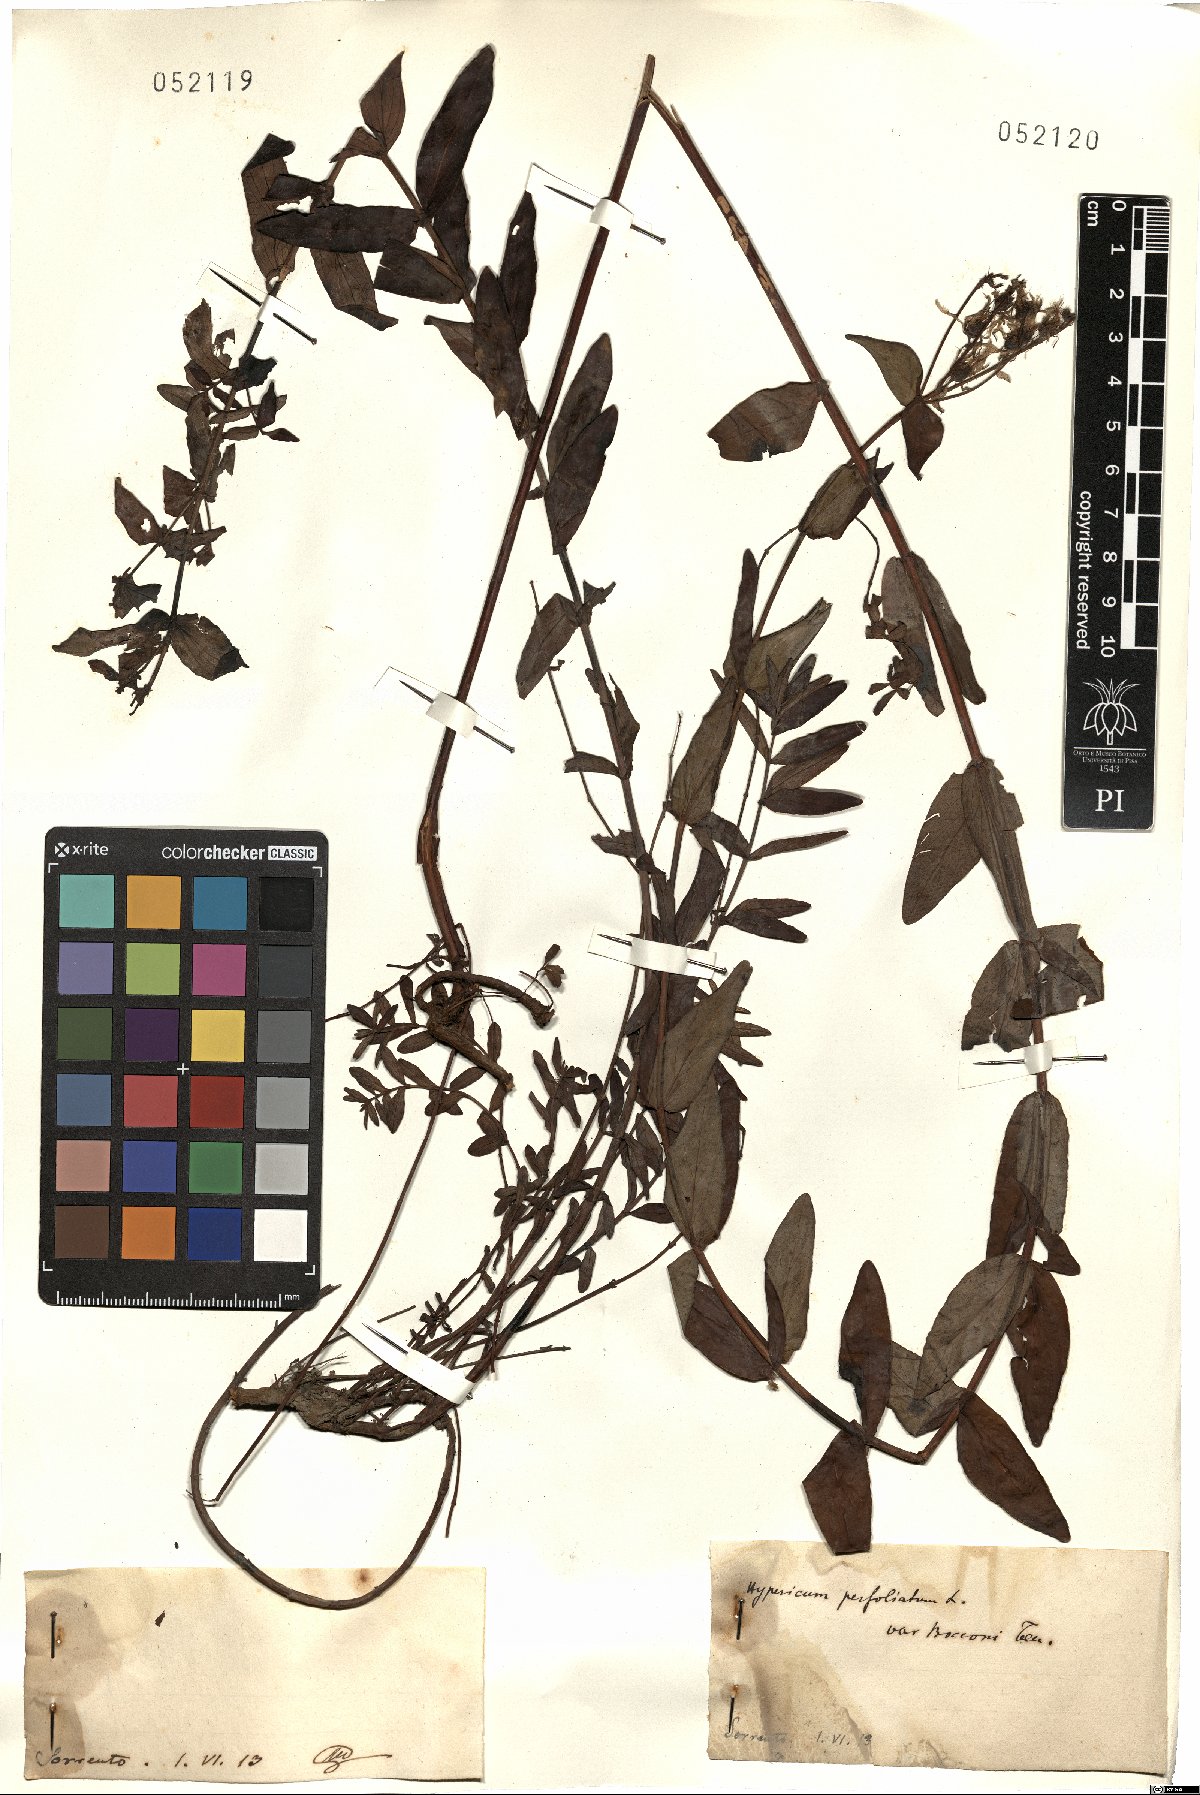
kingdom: Plantae
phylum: Tracheophyta
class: Magnoliopsida
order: Malpighiales
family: Hypericaceae
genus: Hypericum
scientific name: Hypericum
